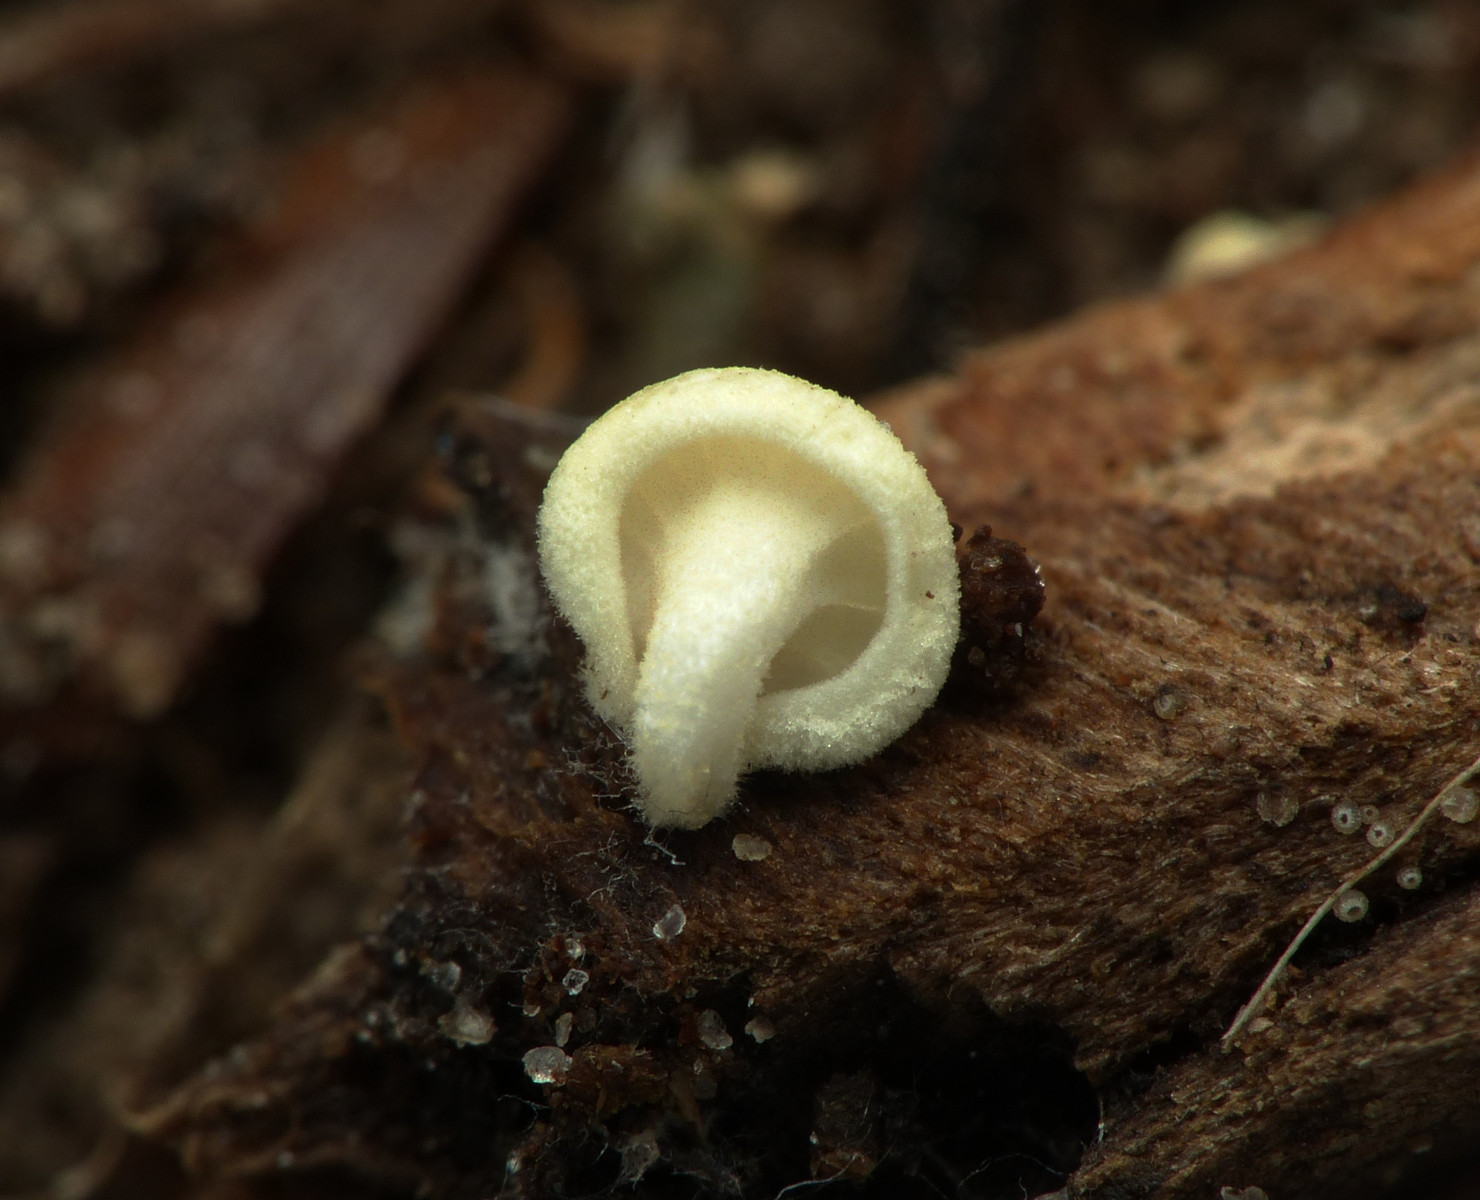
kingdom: Fungi
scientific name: Fungi
